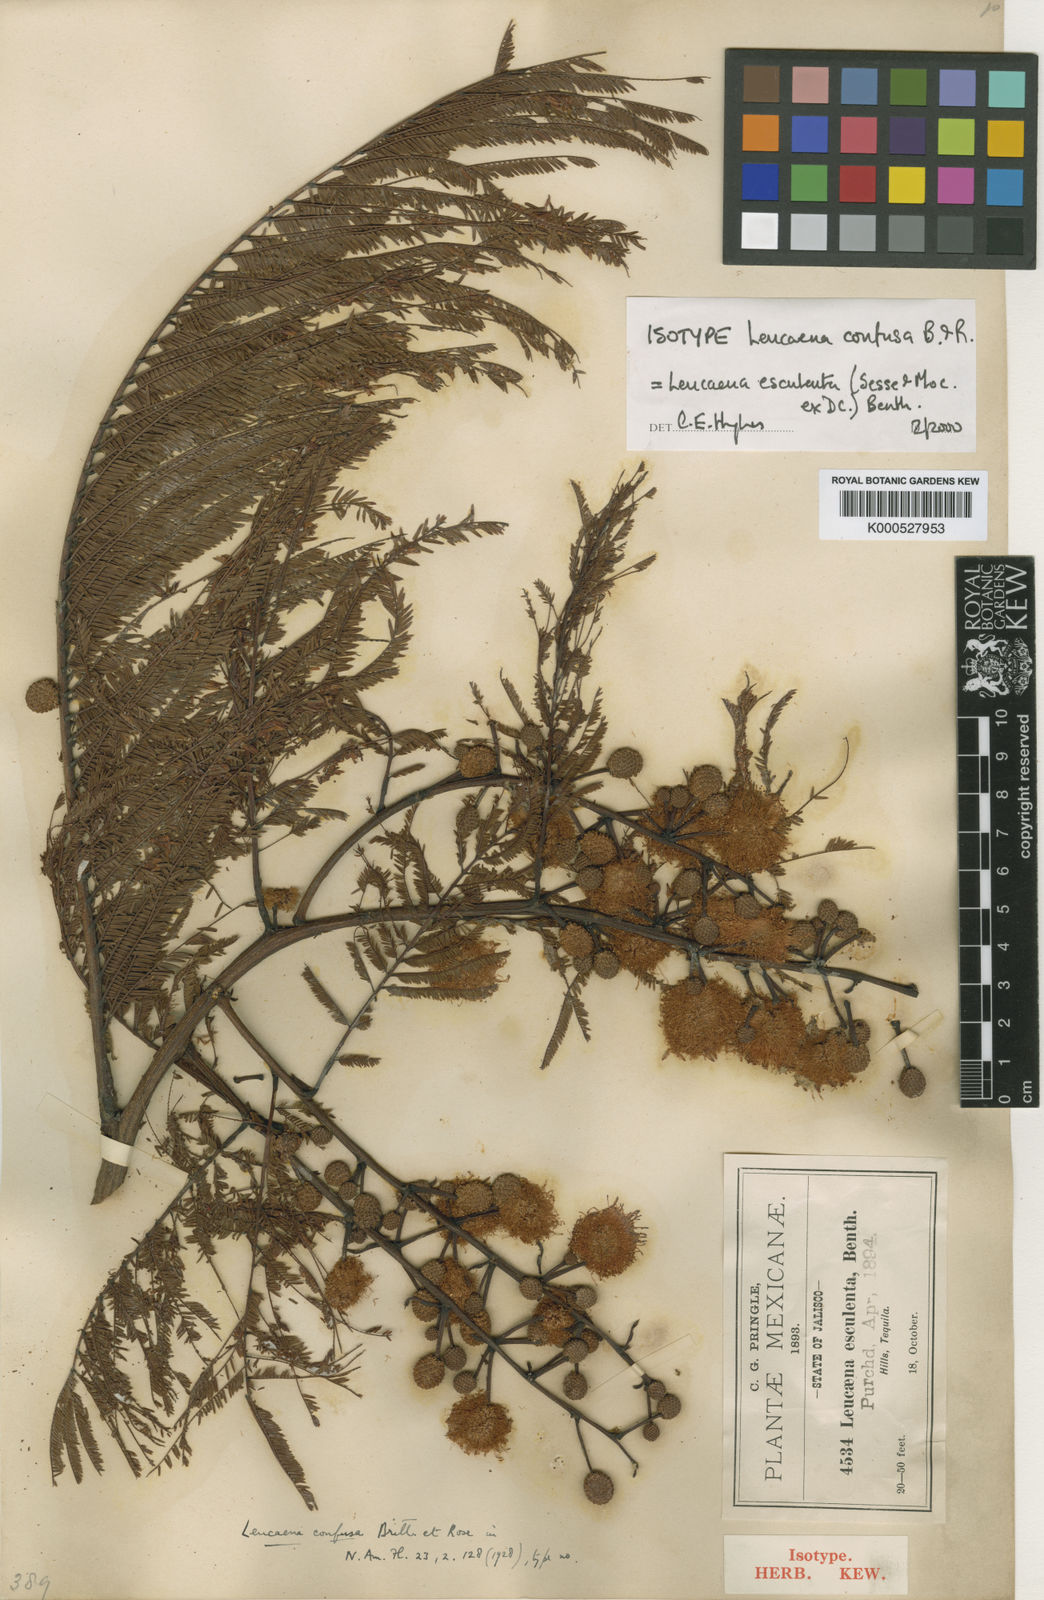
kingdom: Plantae
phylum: Tracheophyta
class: Magnoliopsida
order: Fabales
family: Fabaceae
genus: Leucaena
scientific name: Leucaena
